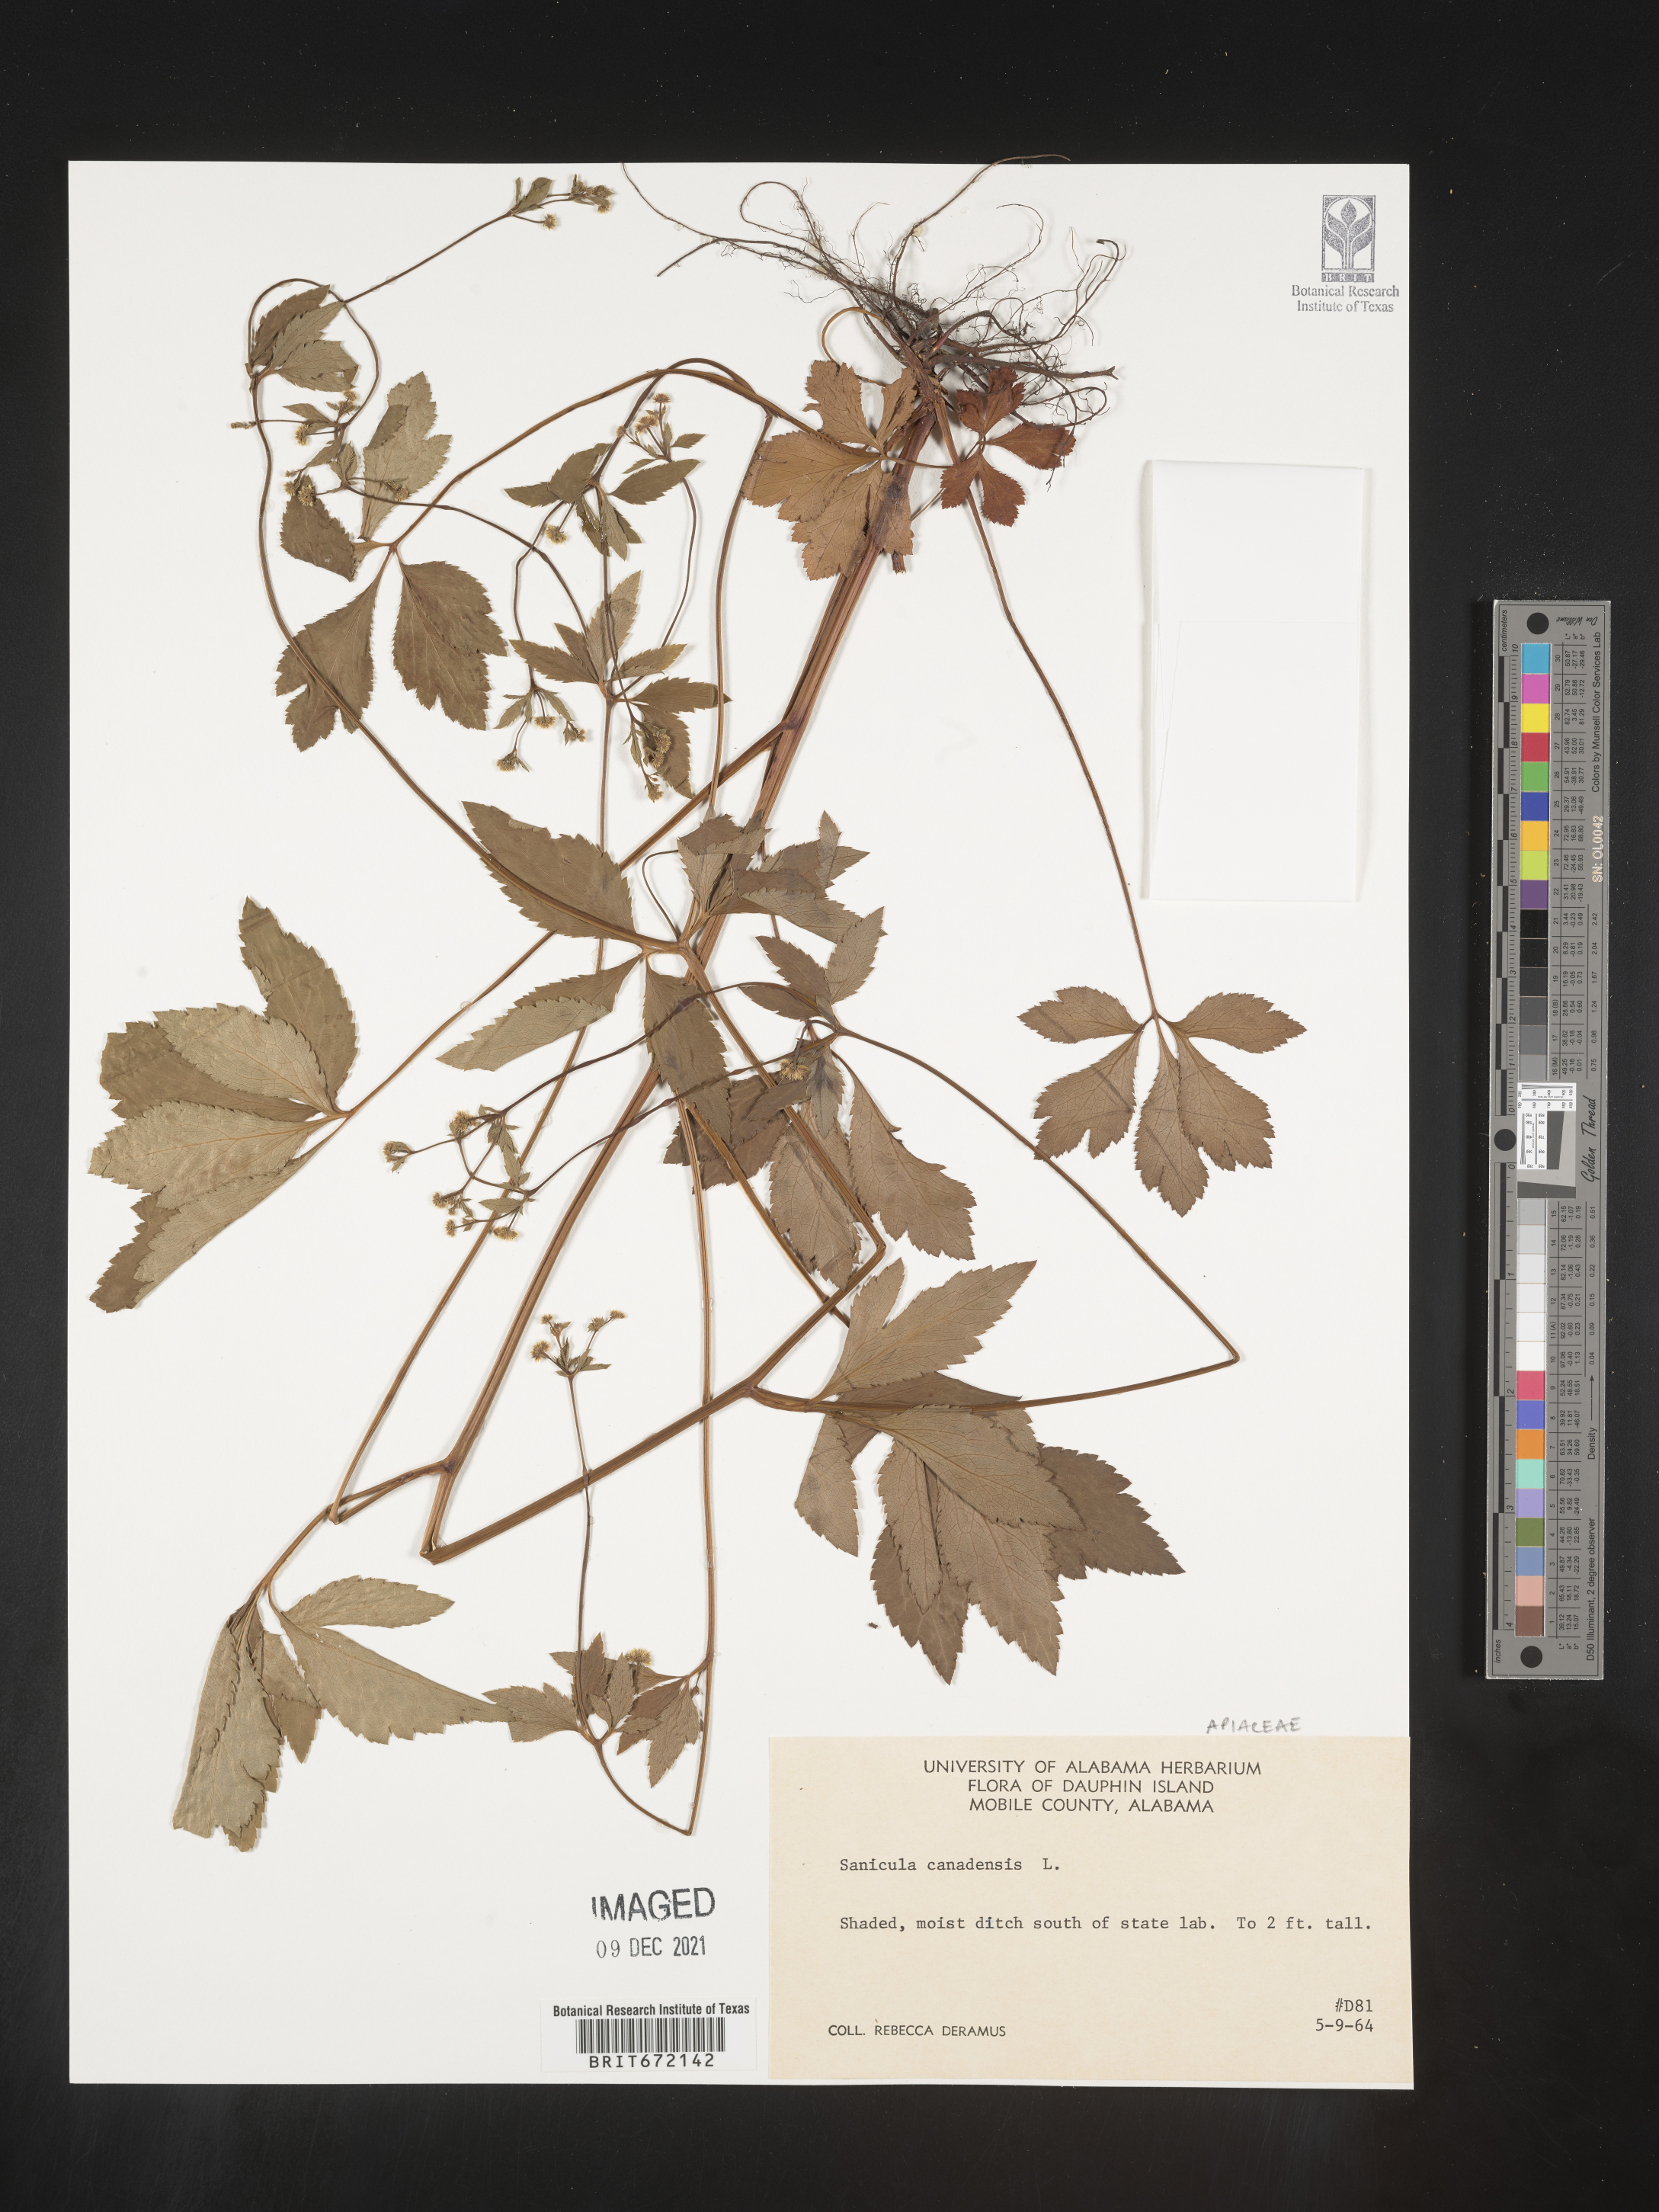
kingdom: Plantae
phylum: Tracheophyta
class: Magnoliopsida
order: Apiales
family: Apiaceae
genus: Sanicula
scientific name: Sanicula canadensis
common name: Canada sanicle
